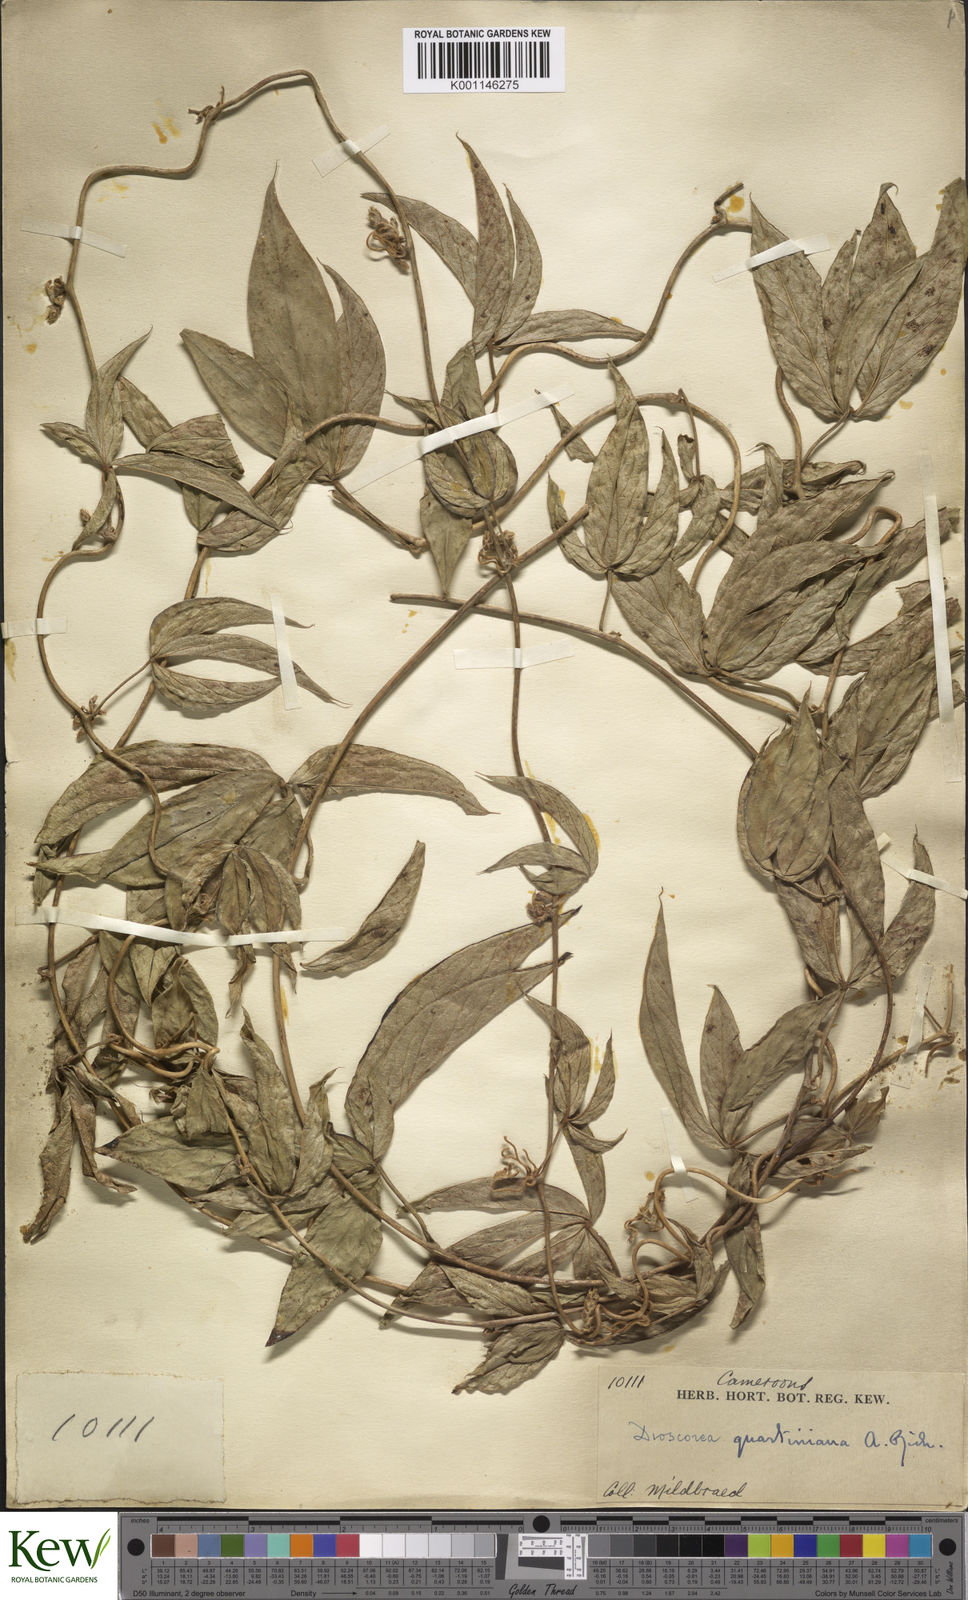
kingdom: Plantae
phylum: Tracheophyta
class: Liliopsida
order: Dioscoreales
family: Dioscoreaceae
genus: Dioscorea
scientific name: Dioscorea quartiniana
